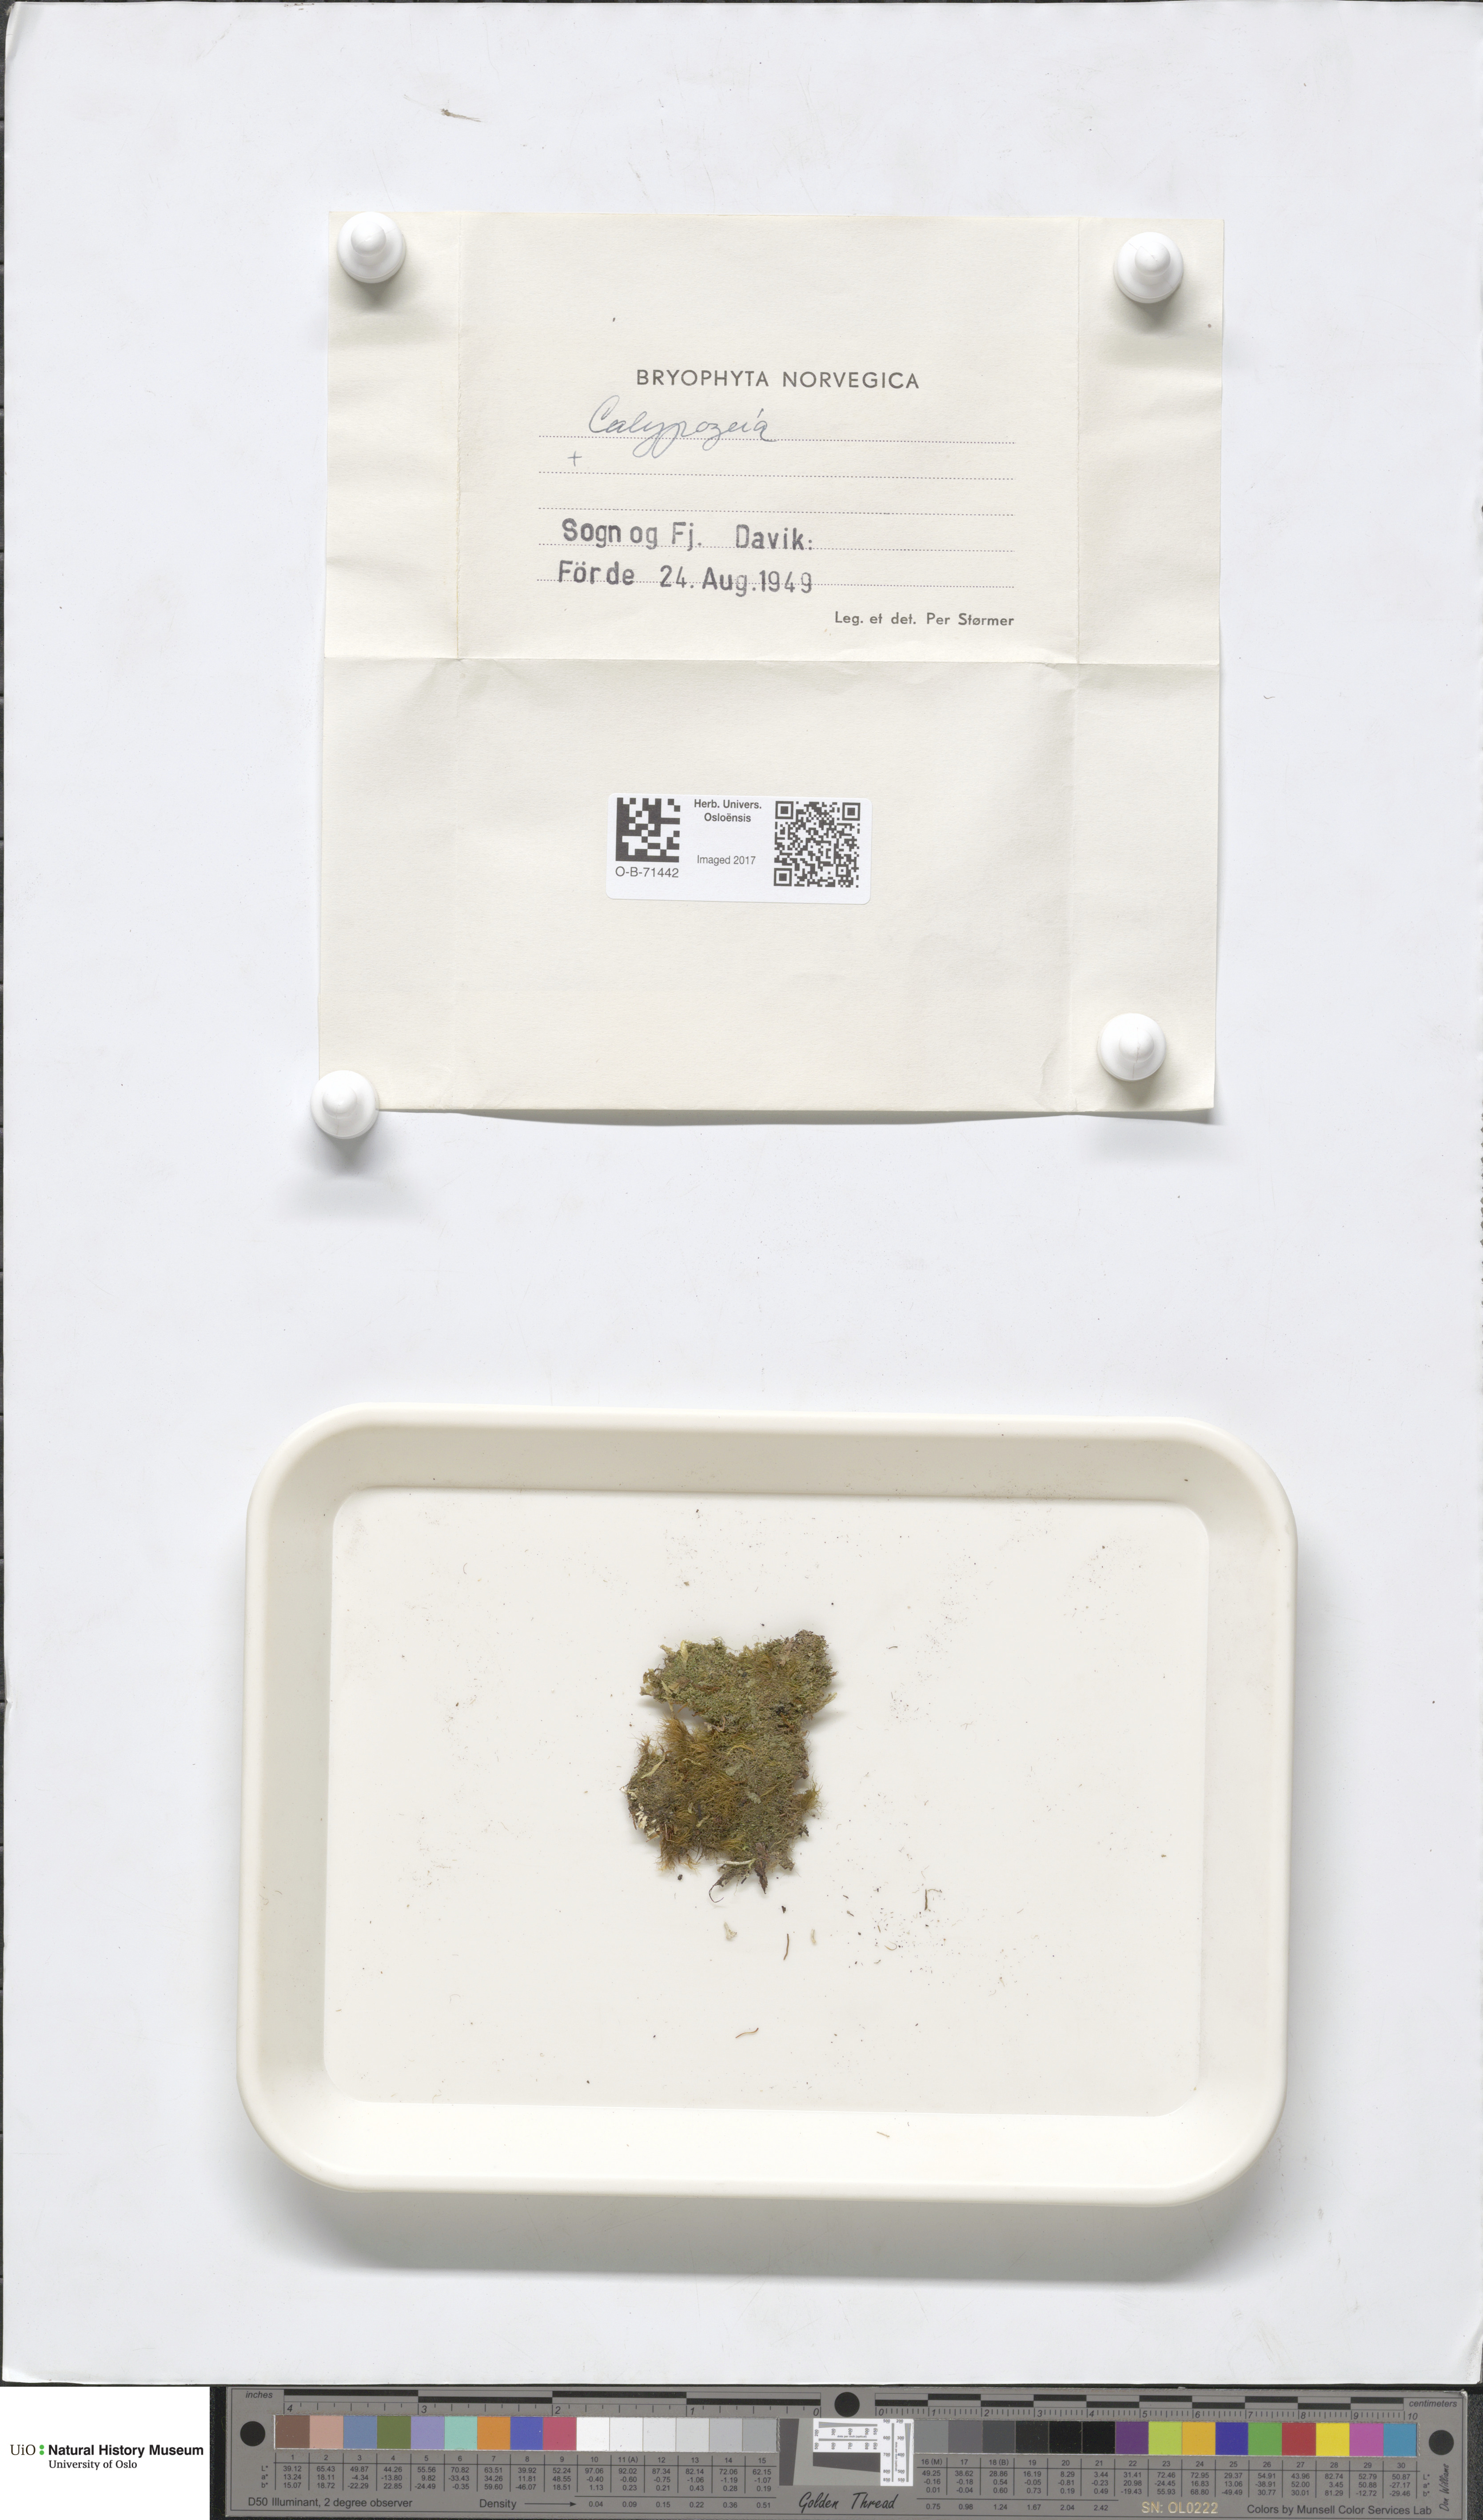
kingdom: Plantae
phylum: Marchantiophyta
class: Jungermanniopsida
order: Jungermanniales
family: Calypogeiaceae
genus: Calypogeia
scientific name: Calypogeia
